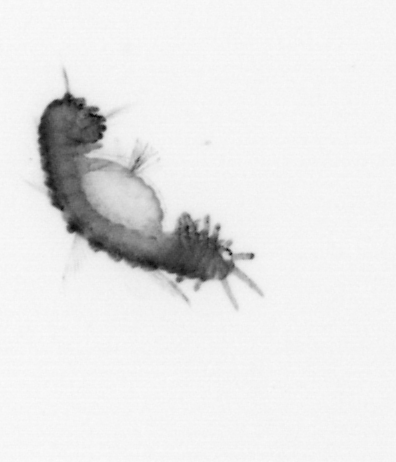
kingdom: Animalia
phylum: Annelida
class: Polychaeta
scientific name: Polychaeta
